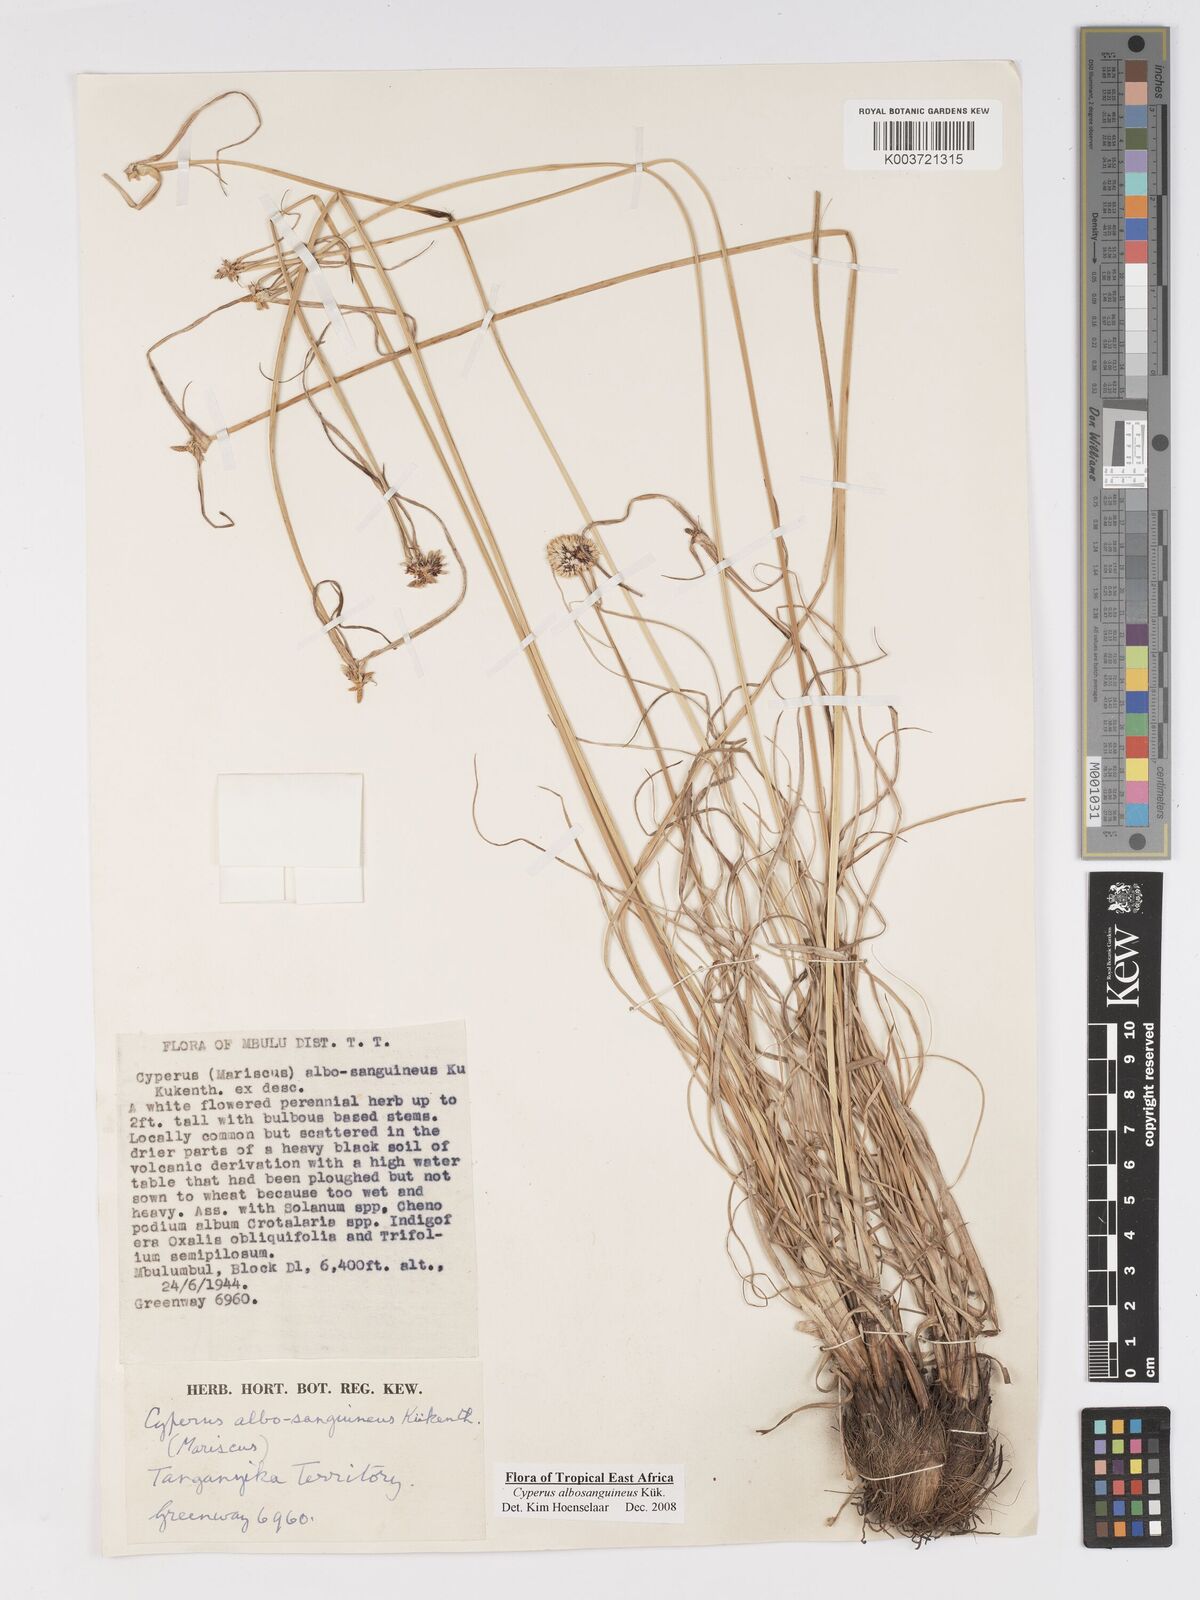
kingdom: Plantae
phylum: Tracheophyta
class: Liliopsida
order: Poales
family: Cyperaceae
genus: Cyperus
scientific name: Cyperus albosanguineus
